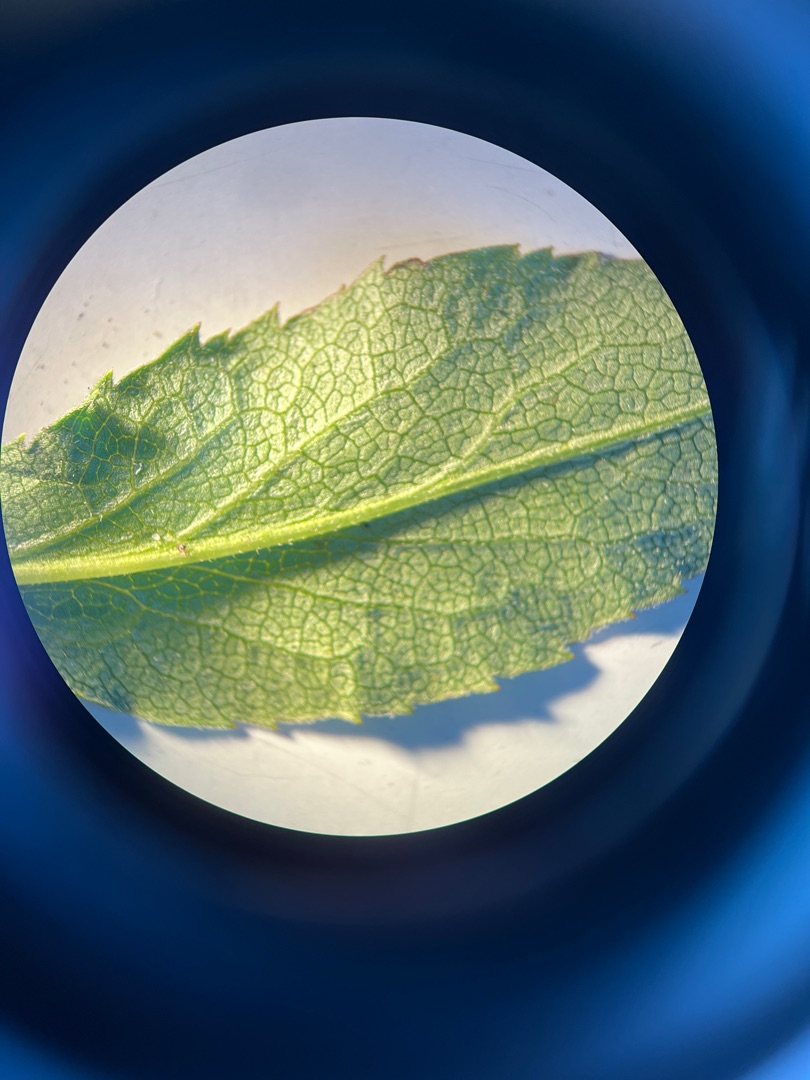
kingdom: Plantae
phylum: Tracheophyta
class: Magnoliopsida
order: Asterales
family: Asteraceae
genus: Solidago
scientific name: Solidago virgaurea
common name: Almindelig gyldenris
